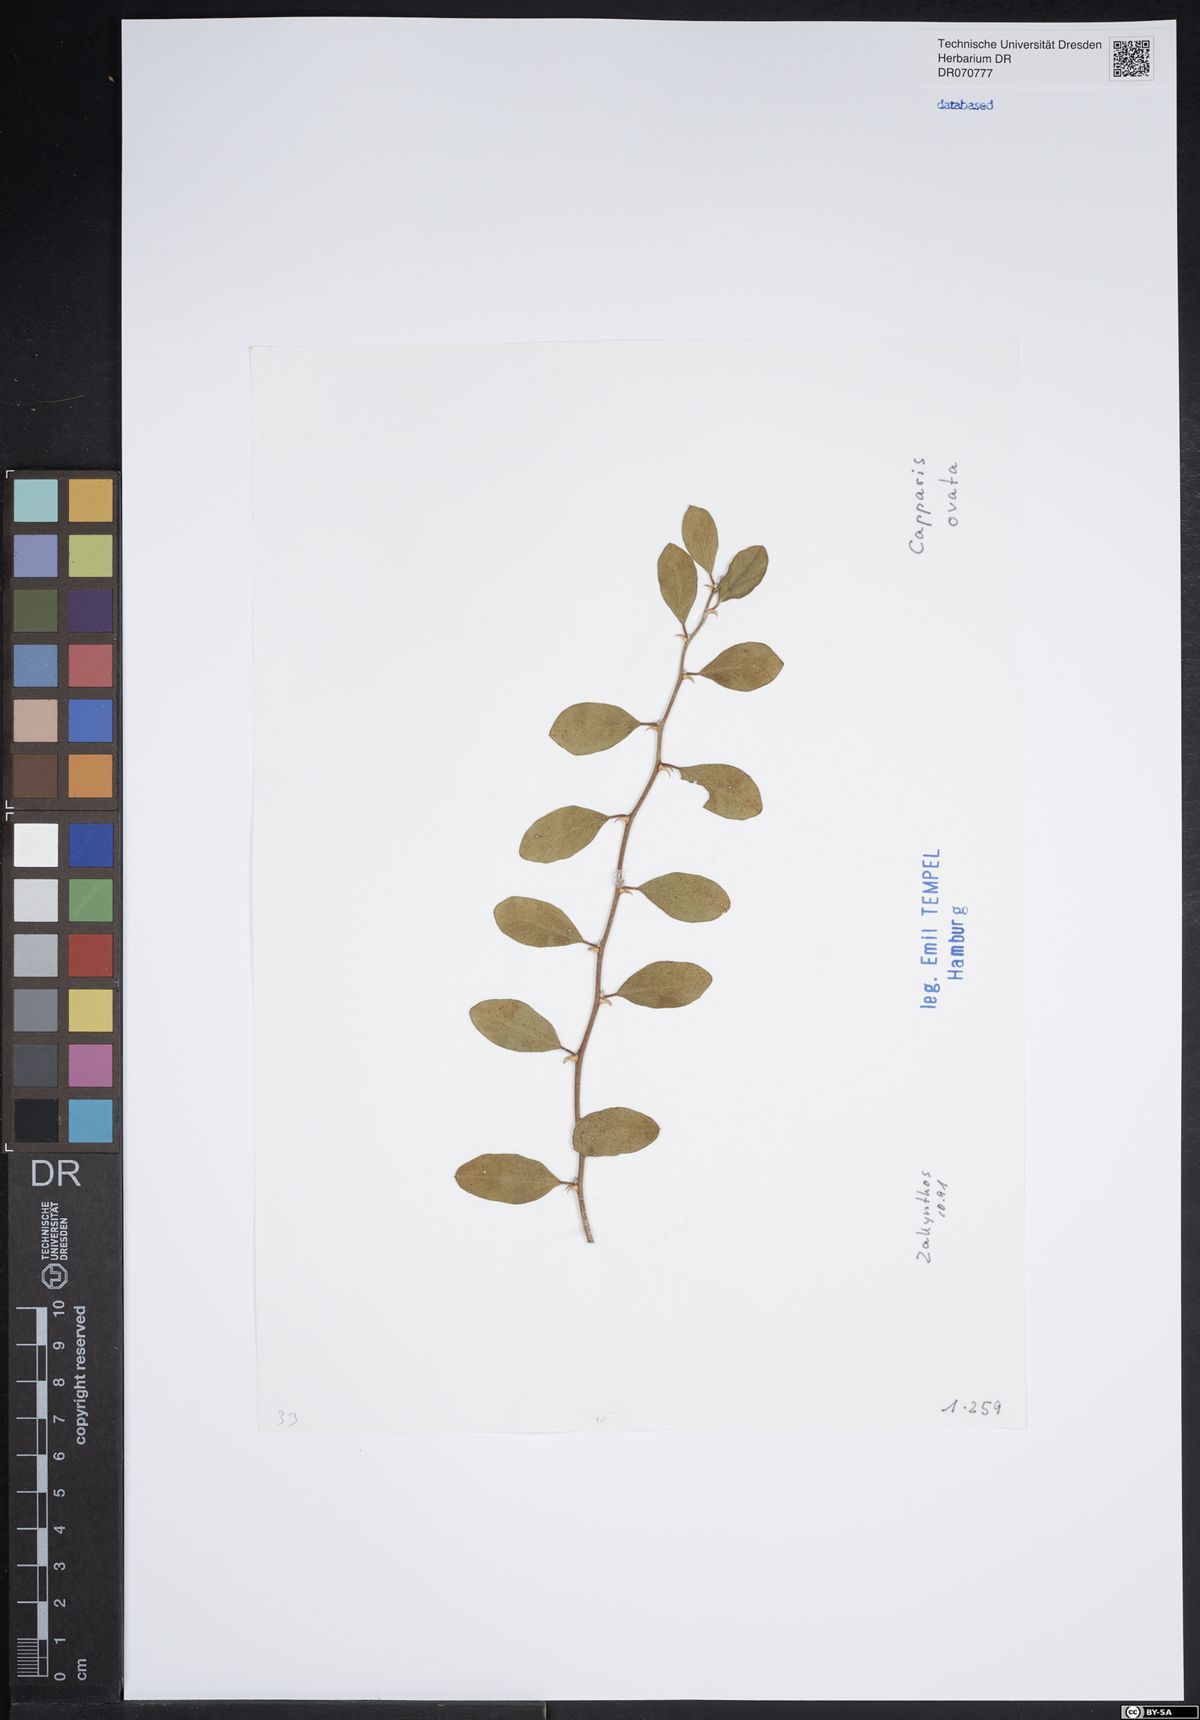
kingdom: Plantae
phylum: Tracheophyta
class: Magnoliopsida
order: Brassicales
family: Capparaceae
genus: Capparis
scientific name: Capparis spinosa
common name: Caper
